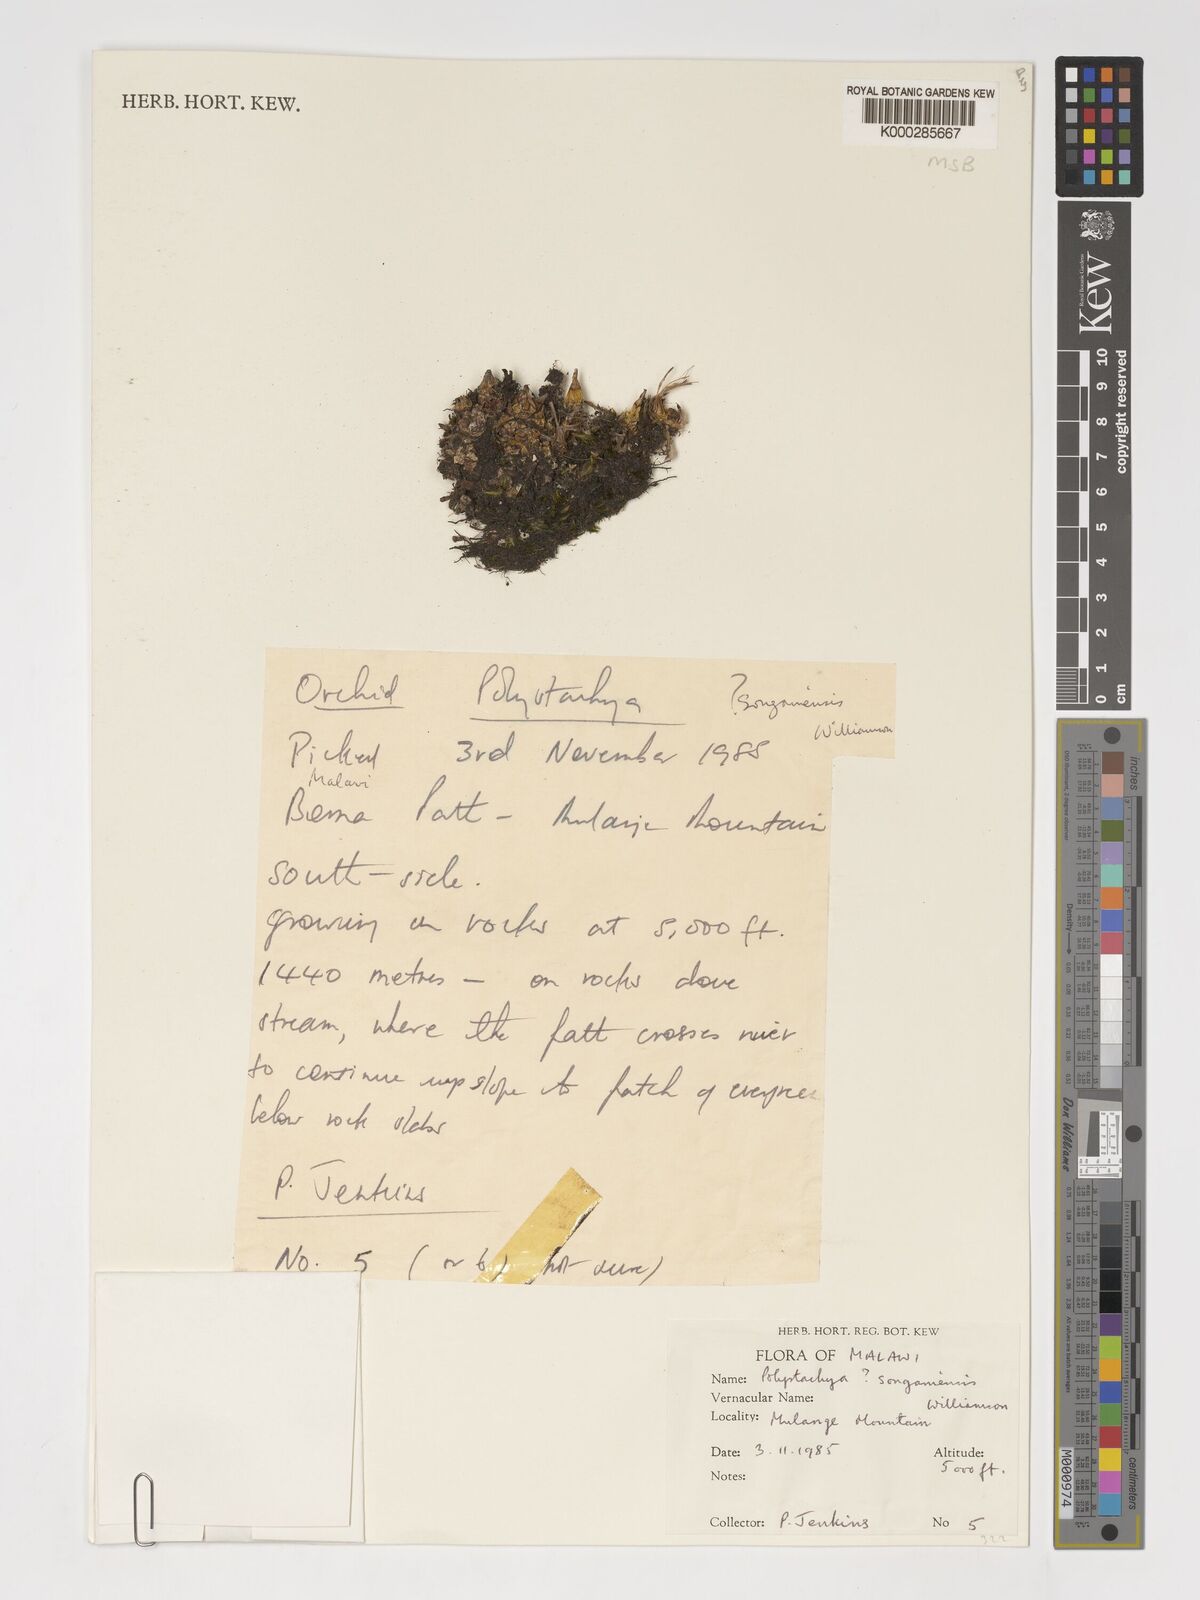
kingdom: Plantae
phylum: Tracheophyta
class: Liliopsida
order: Asparagales
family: Orchidaceae
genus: Polystachya
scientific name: Polystachya songaniensis
